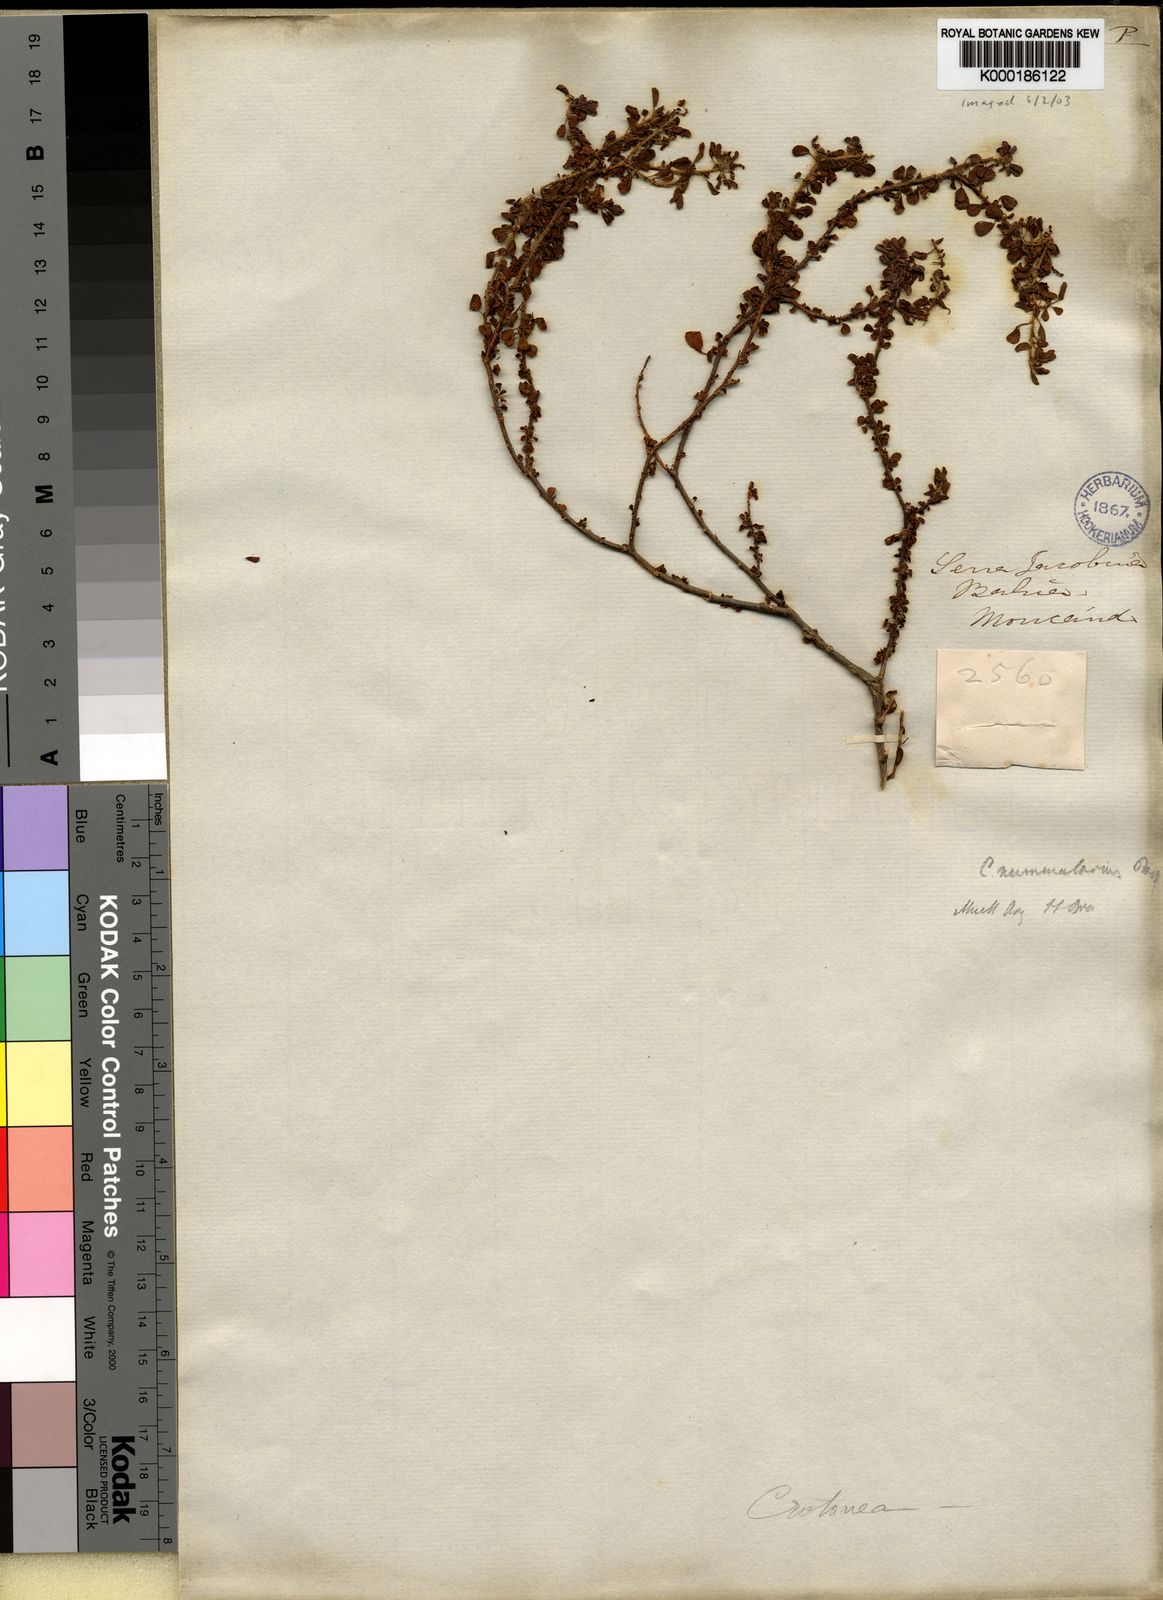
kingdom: Plantae
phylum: Tracheophyta
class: Magnoliopsida
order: Malpighiales
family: Euphorbiaceae
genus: Croton
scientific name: Croton nummularius
